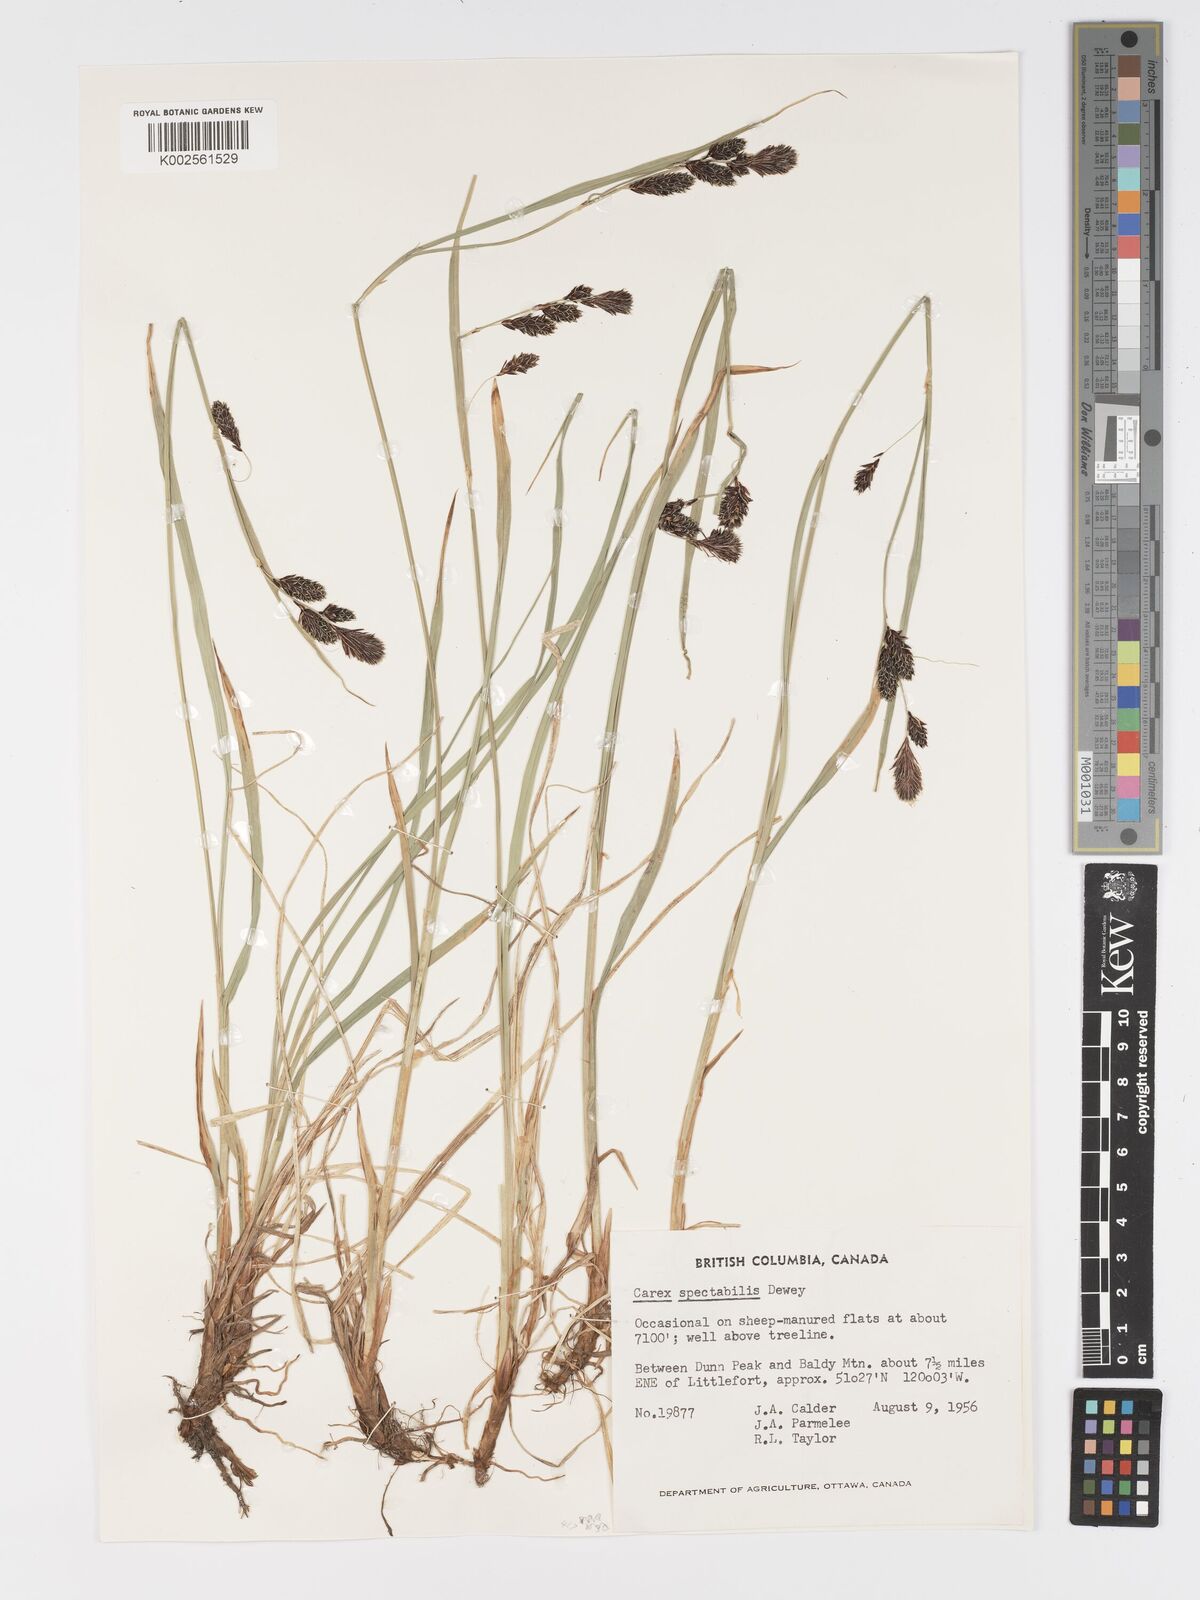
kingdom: Plantae
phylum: Tracheophyta
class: Liliopsida
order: Poales
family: Cyperaceae
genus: Carex
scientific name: Carex spectabilis
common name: Northwestern showy sedge
